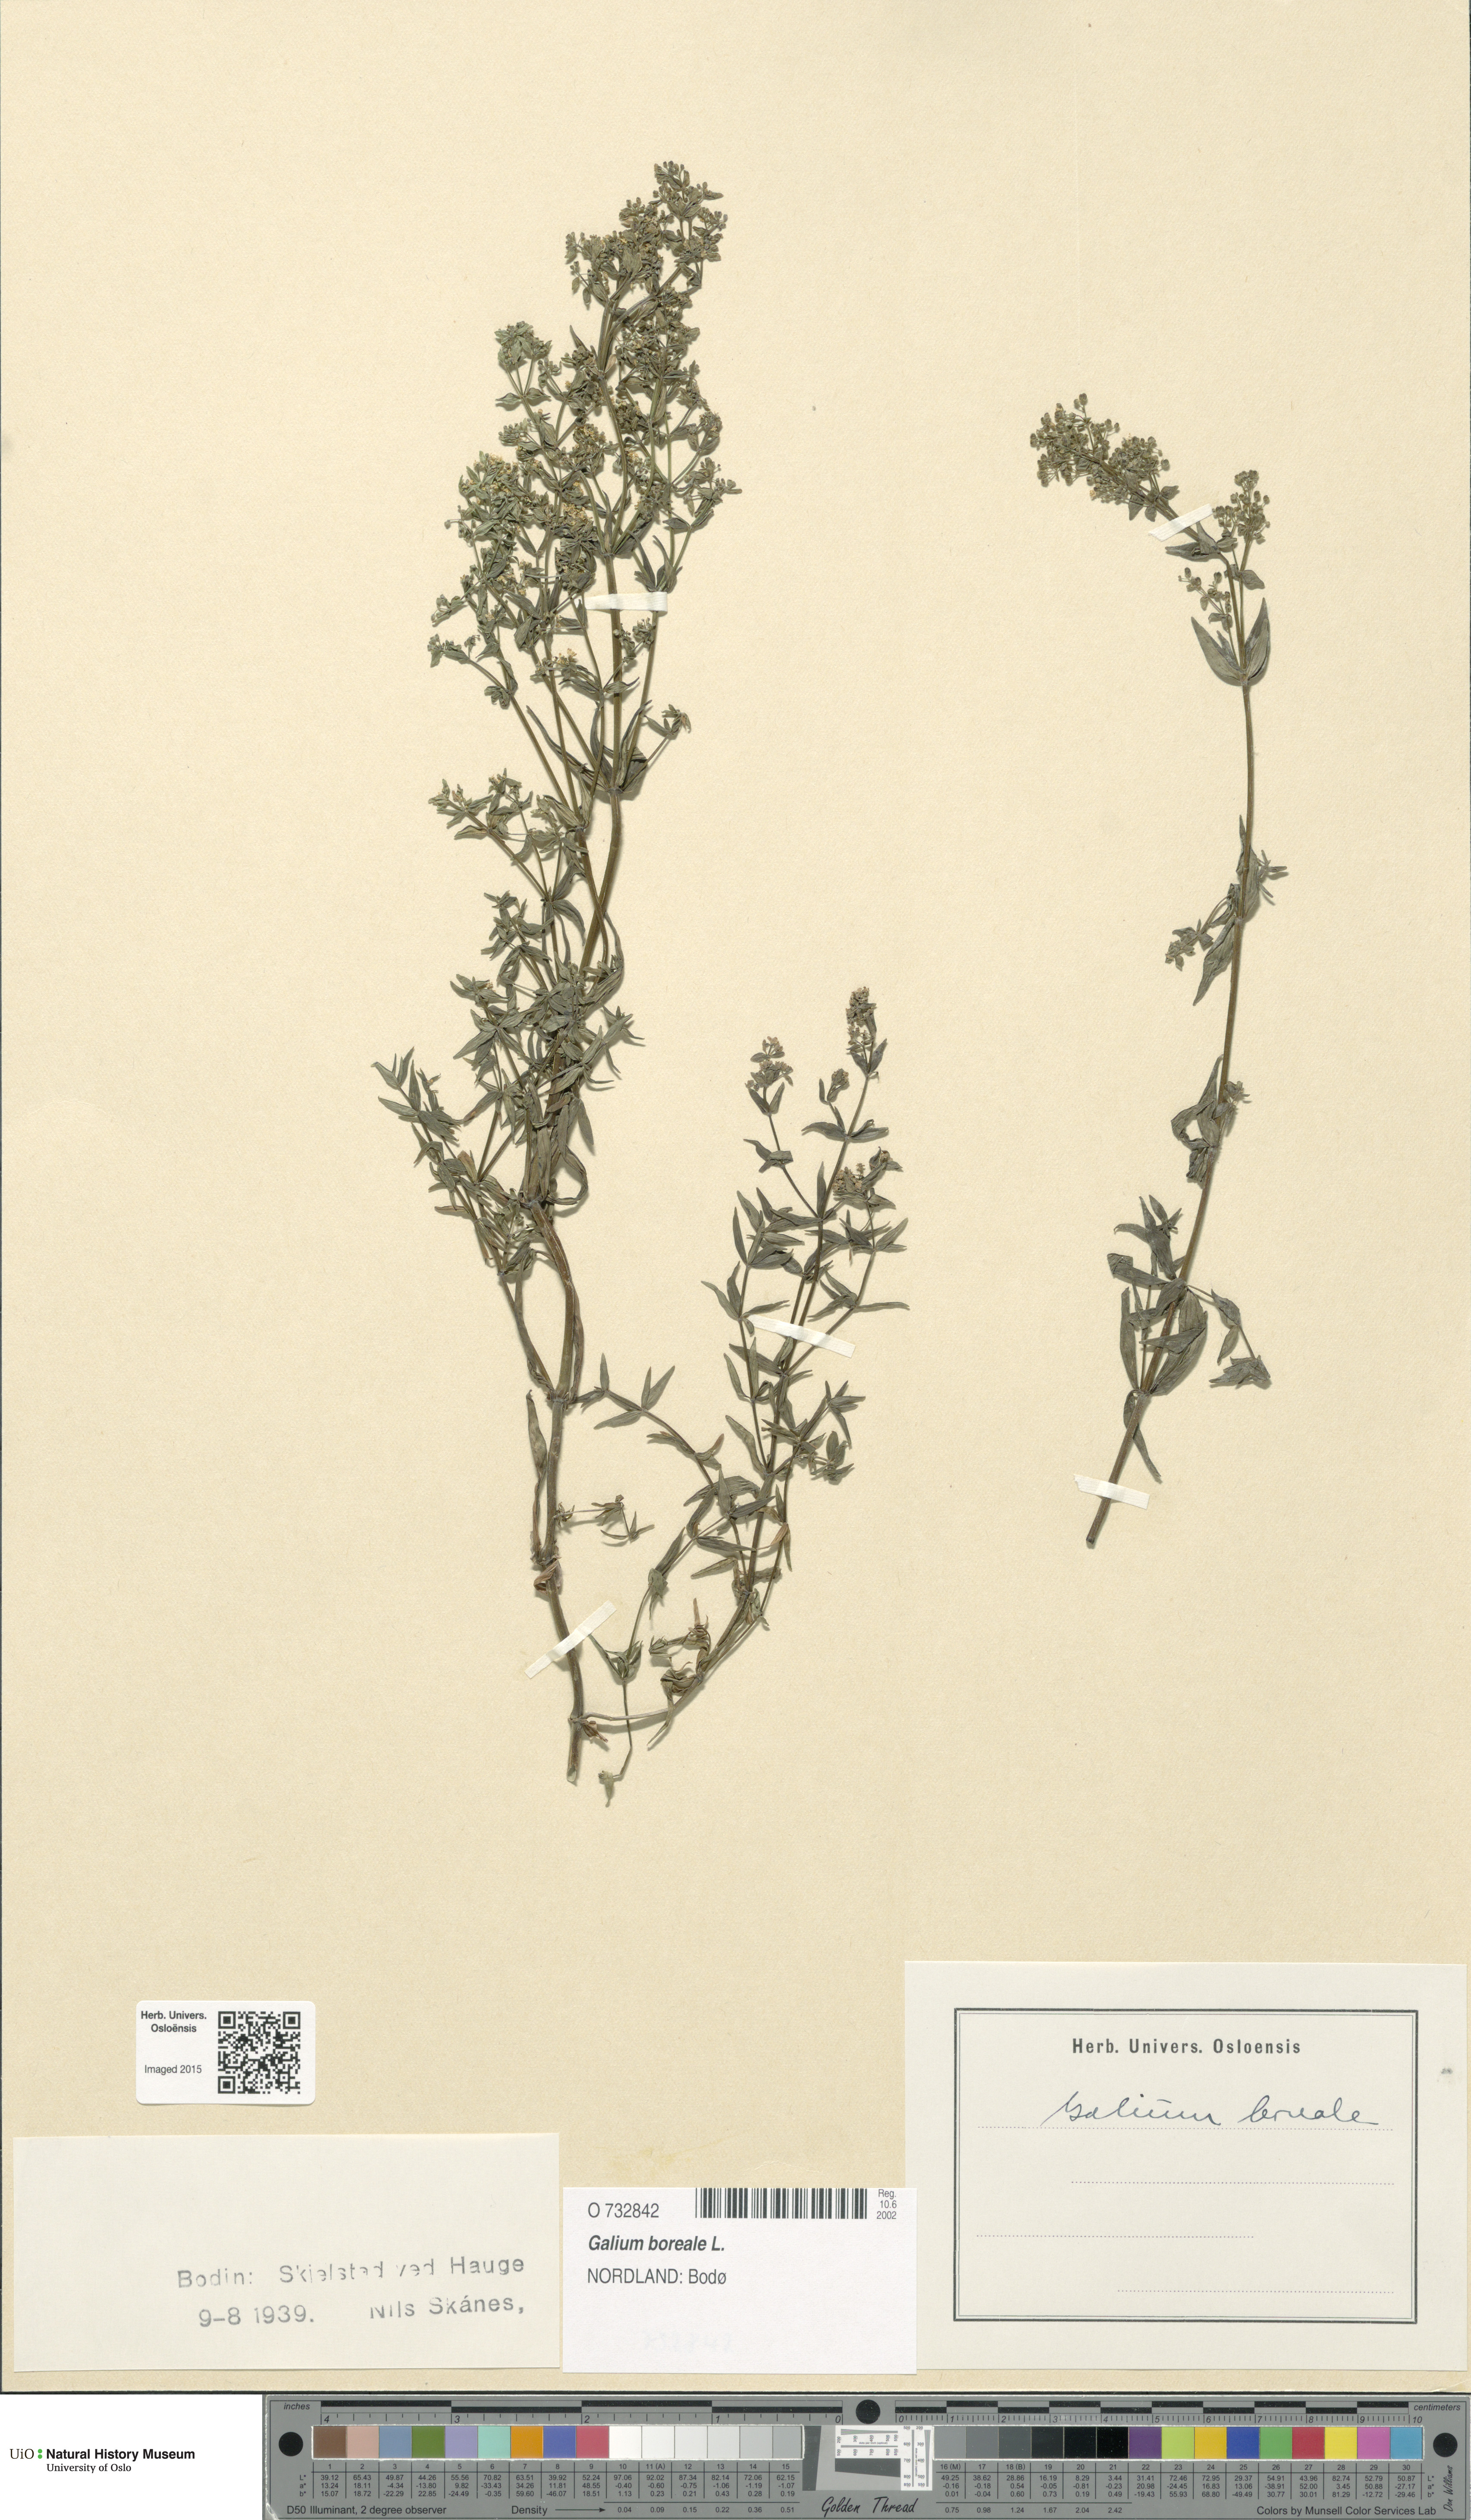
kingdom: Plantae
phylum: Tracheophyta
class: Magnoliopsida
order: Gentianales
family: Rubiaceae
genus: Galium
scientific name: Galium boreale
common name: Northern bedstraw
